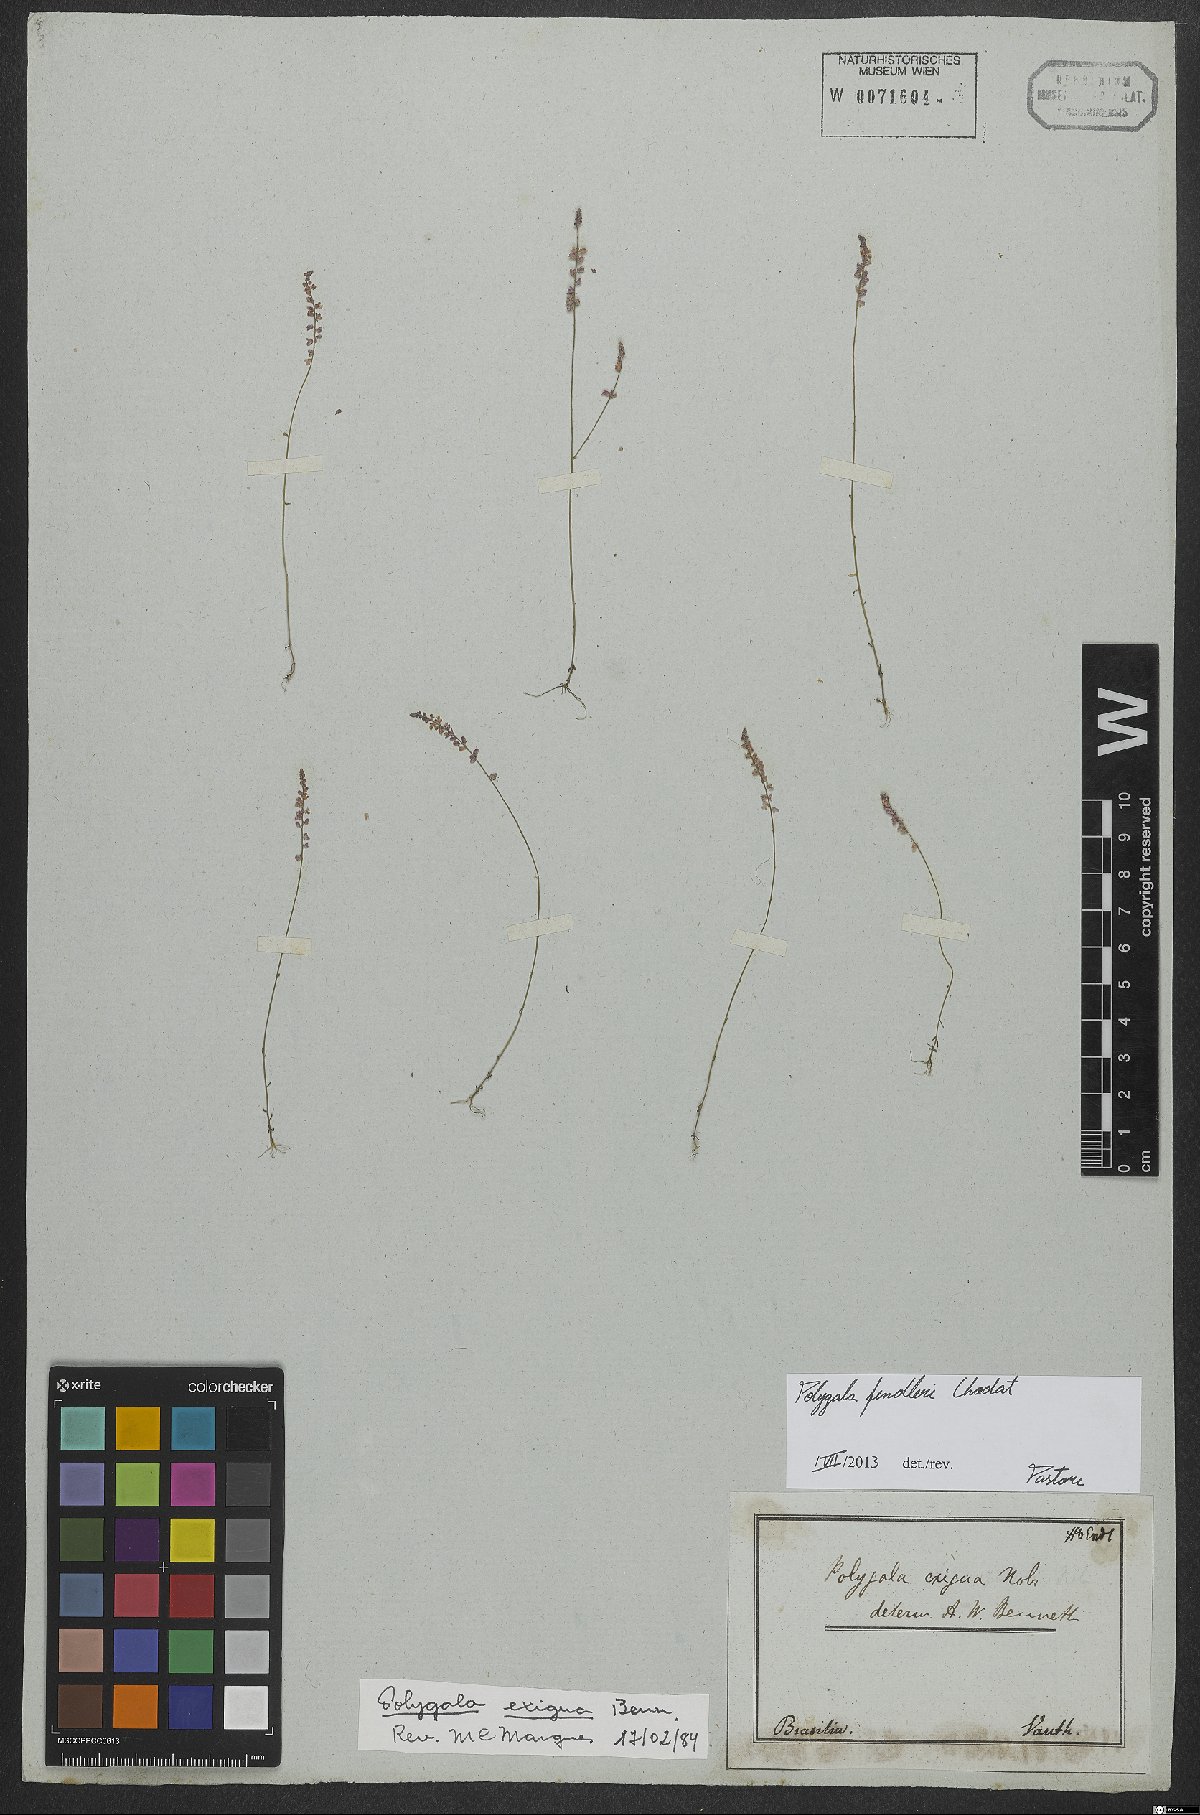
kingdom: Plantae
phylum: Tracheophyta
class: Magnoliopsida
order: Fabales
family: Polygalaceae
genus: Polygala
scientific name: Polygala fendleri
